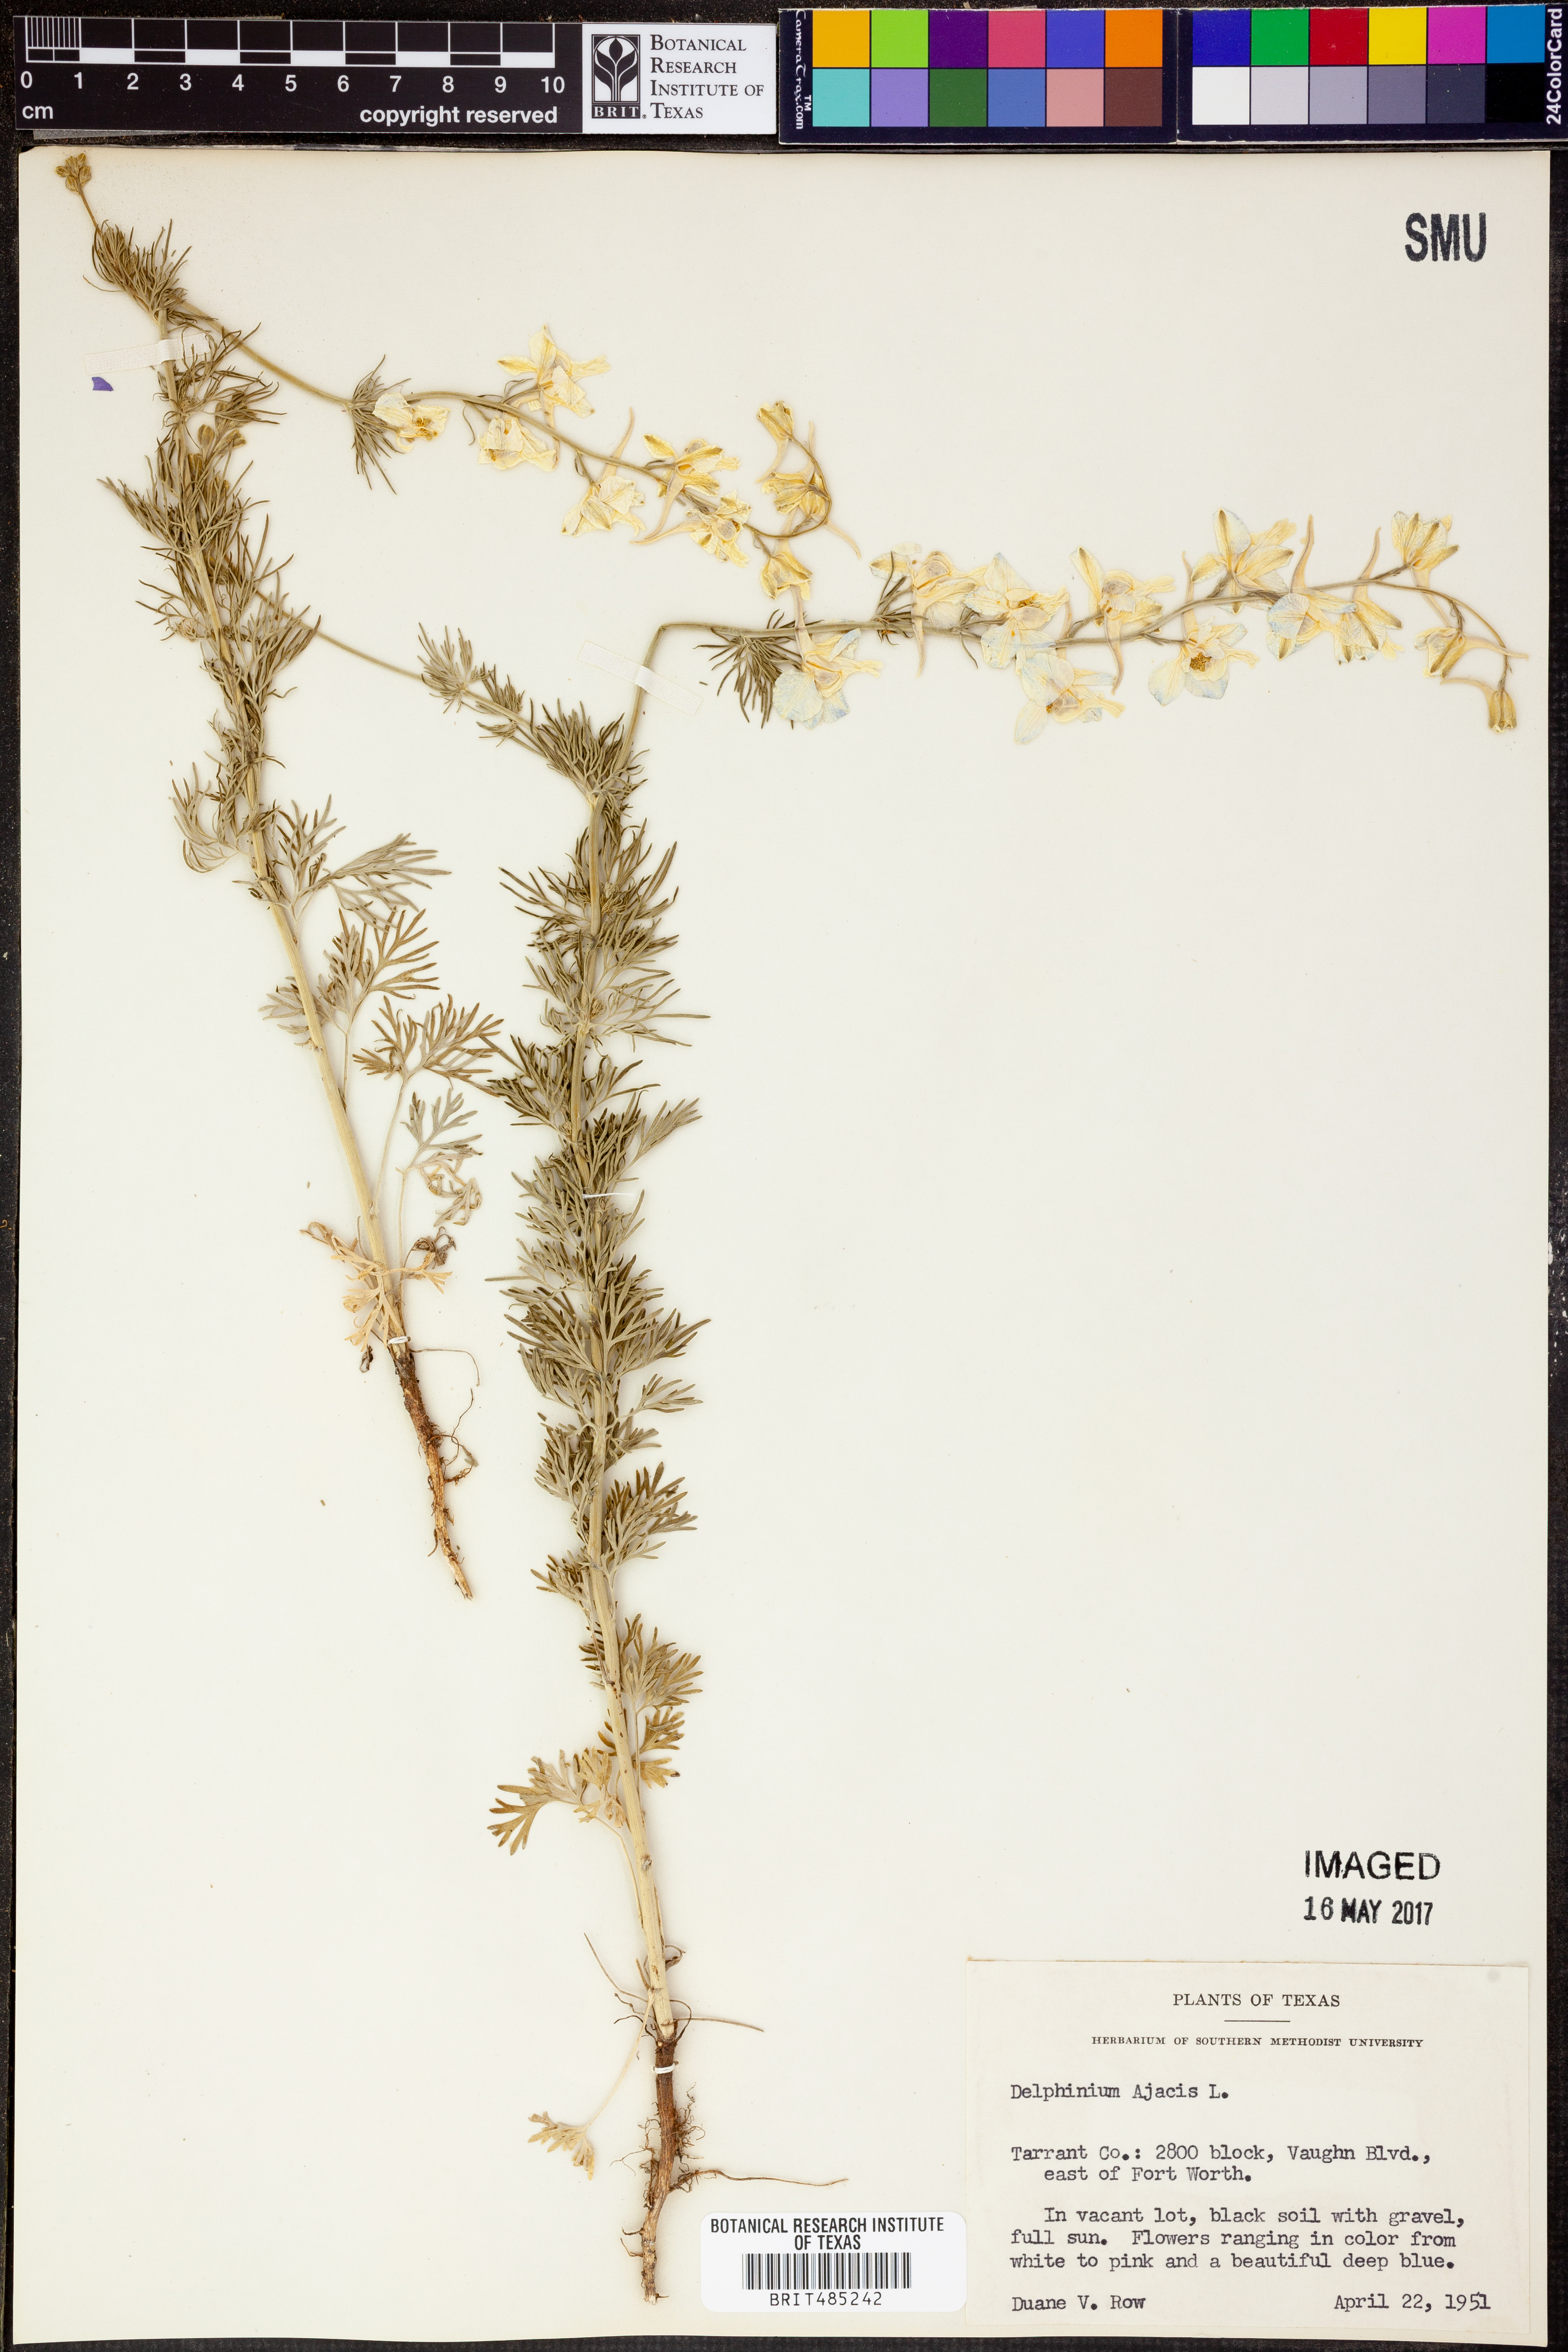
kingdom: Plantae
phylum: Tracheophyta
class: Magnoliopsida
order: Ranunculales
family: Ranunculaceae
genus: Delphinium
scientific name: Delphinium ajacis
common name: Doubtful knight's-spur
